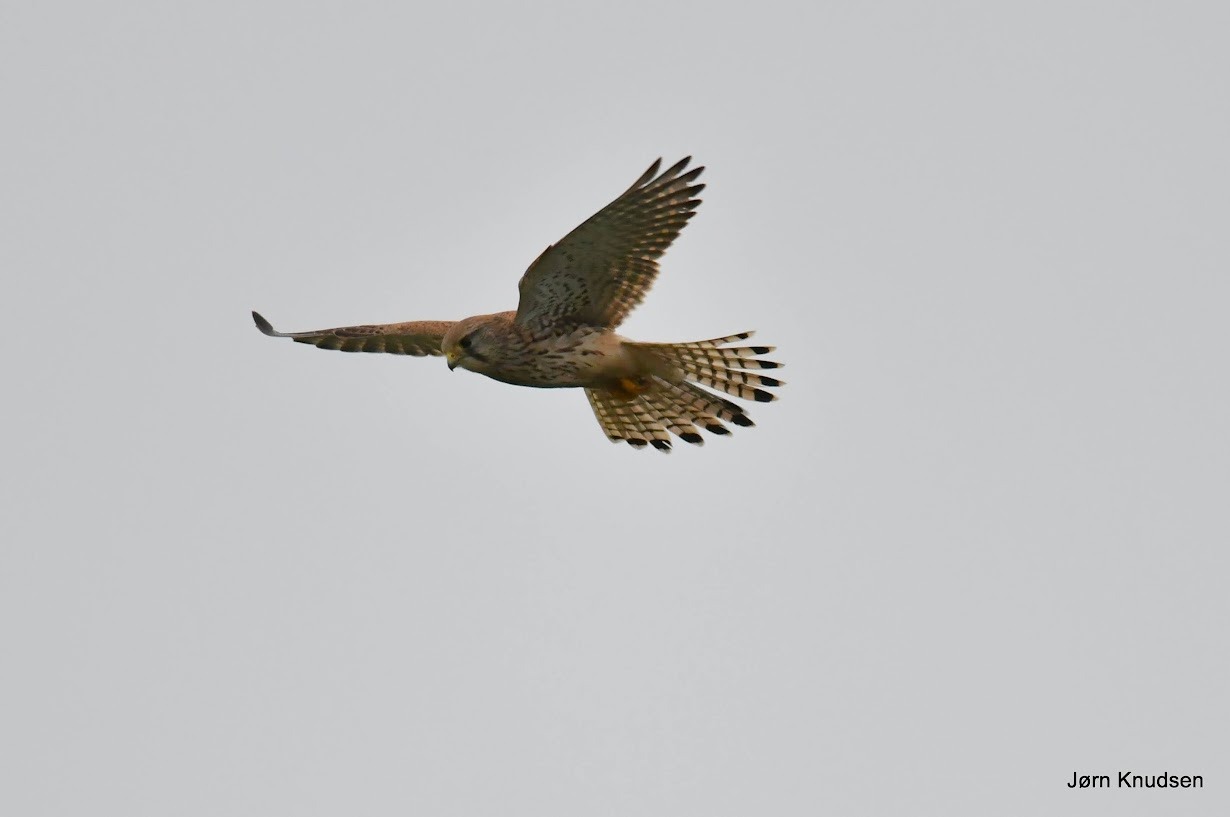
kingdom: Animalia
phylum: Chordata
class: Aves
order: Falconiformes
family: Falconidae
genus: Falco
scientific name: Falco tinnunculus
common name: Tårnfalk
